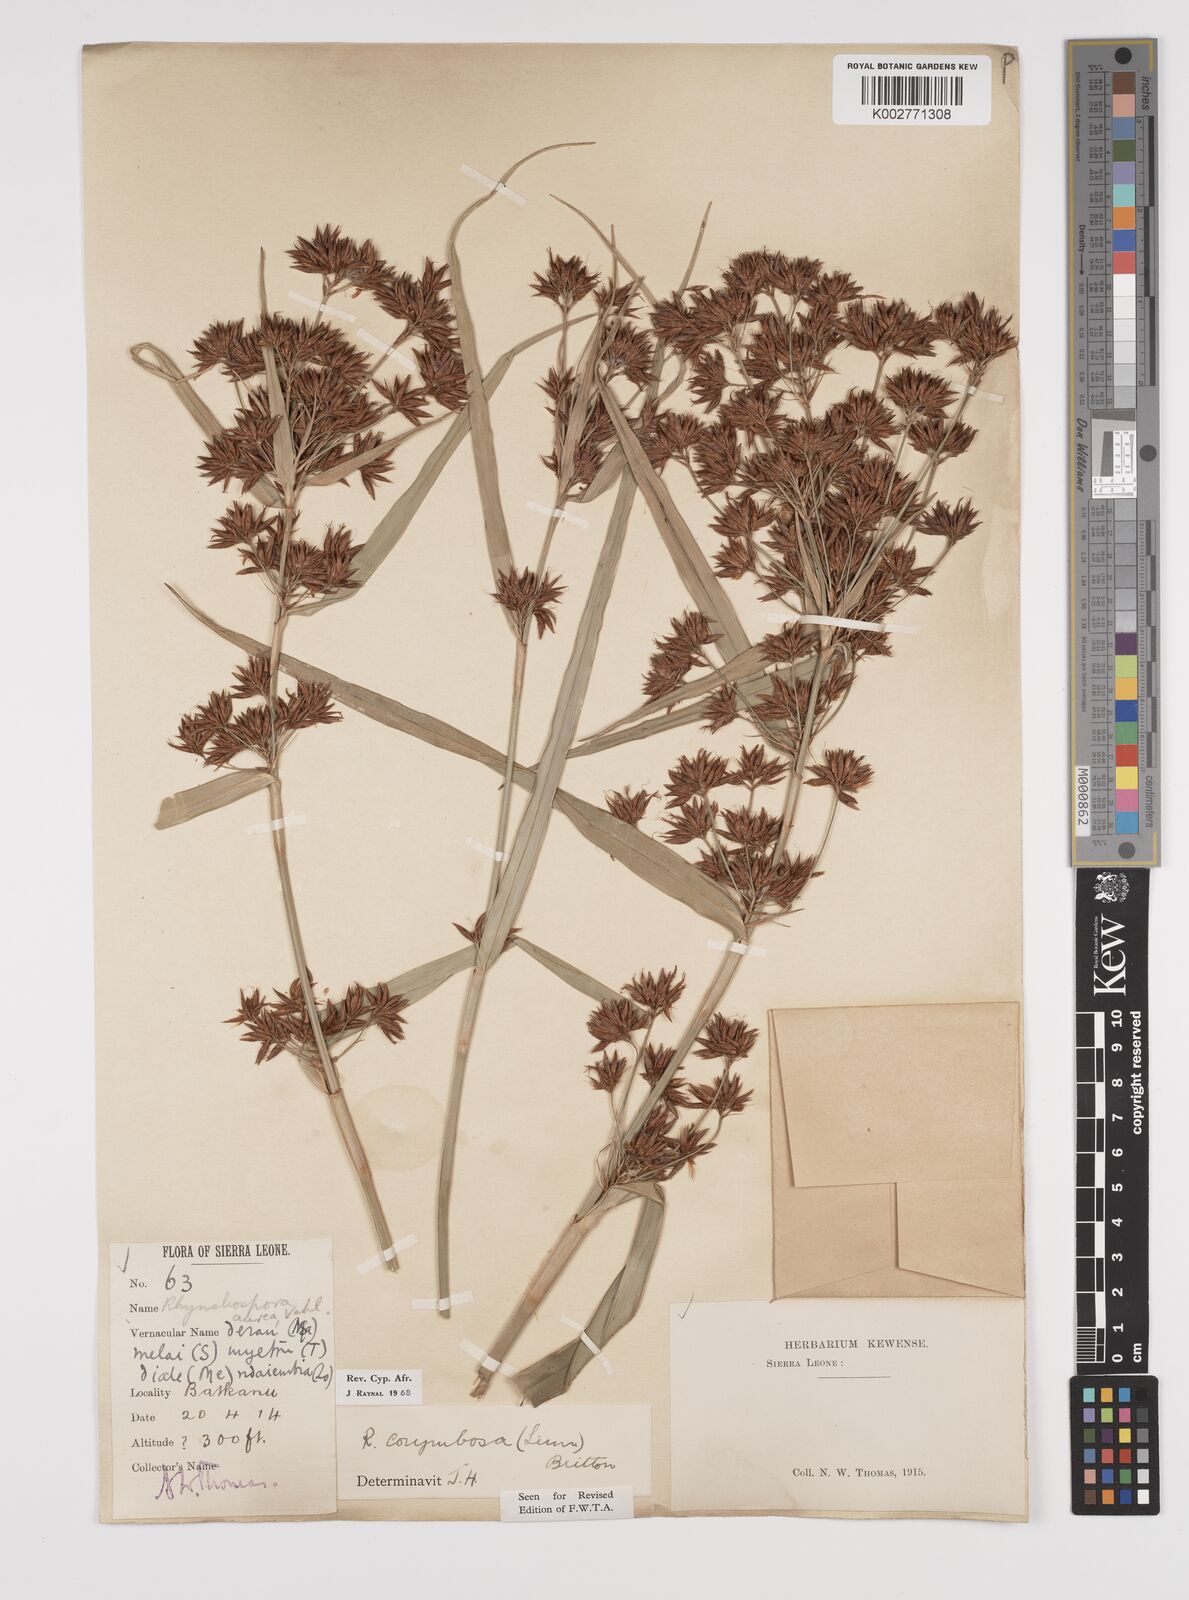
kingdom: Plantae
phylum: Tracheophyta
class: Liliopsida
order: Poales
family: Cyperaceae
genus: Rhynchospora
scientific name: Rhynchospora corymbosa
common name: Golden beak sedge
